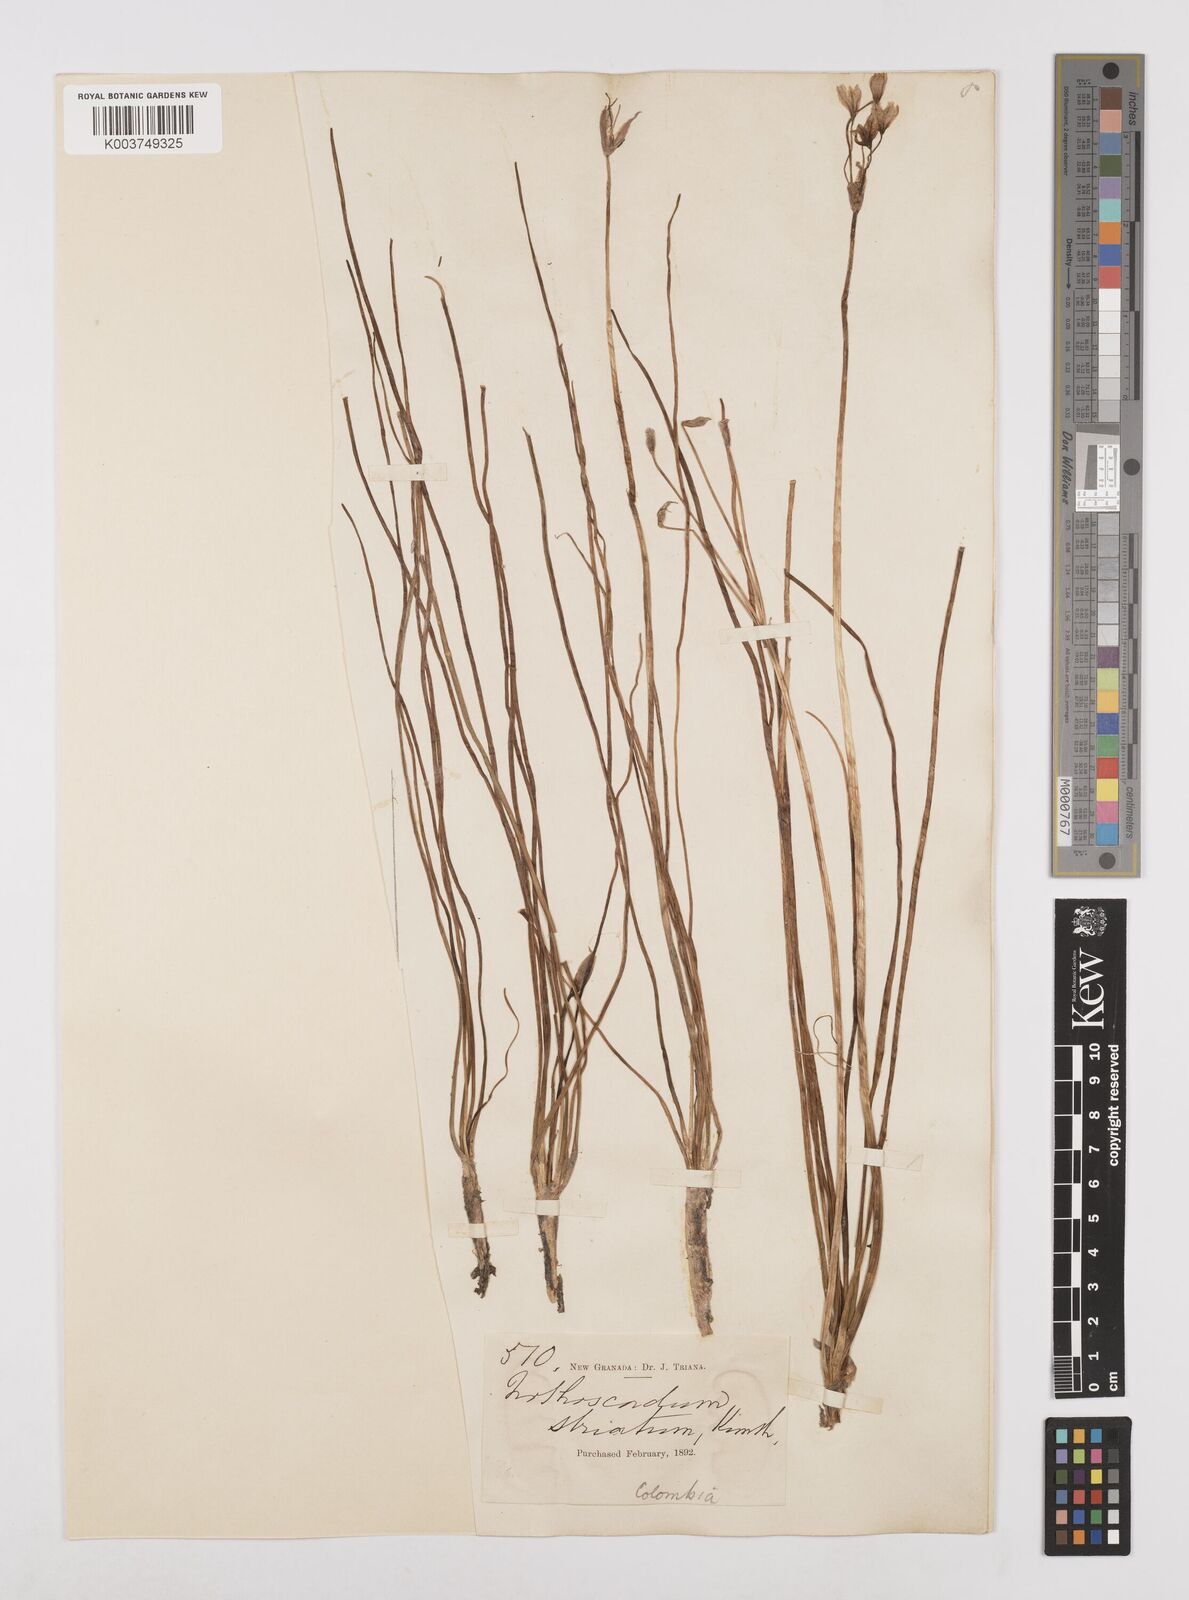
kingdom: Plantae
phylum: Tracheophyta
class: Liliopsida
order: Asparagales
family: Amaryllidaceae
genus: Nothoscordum
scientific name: Nothoscordum bivalve
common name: Crow-poison
